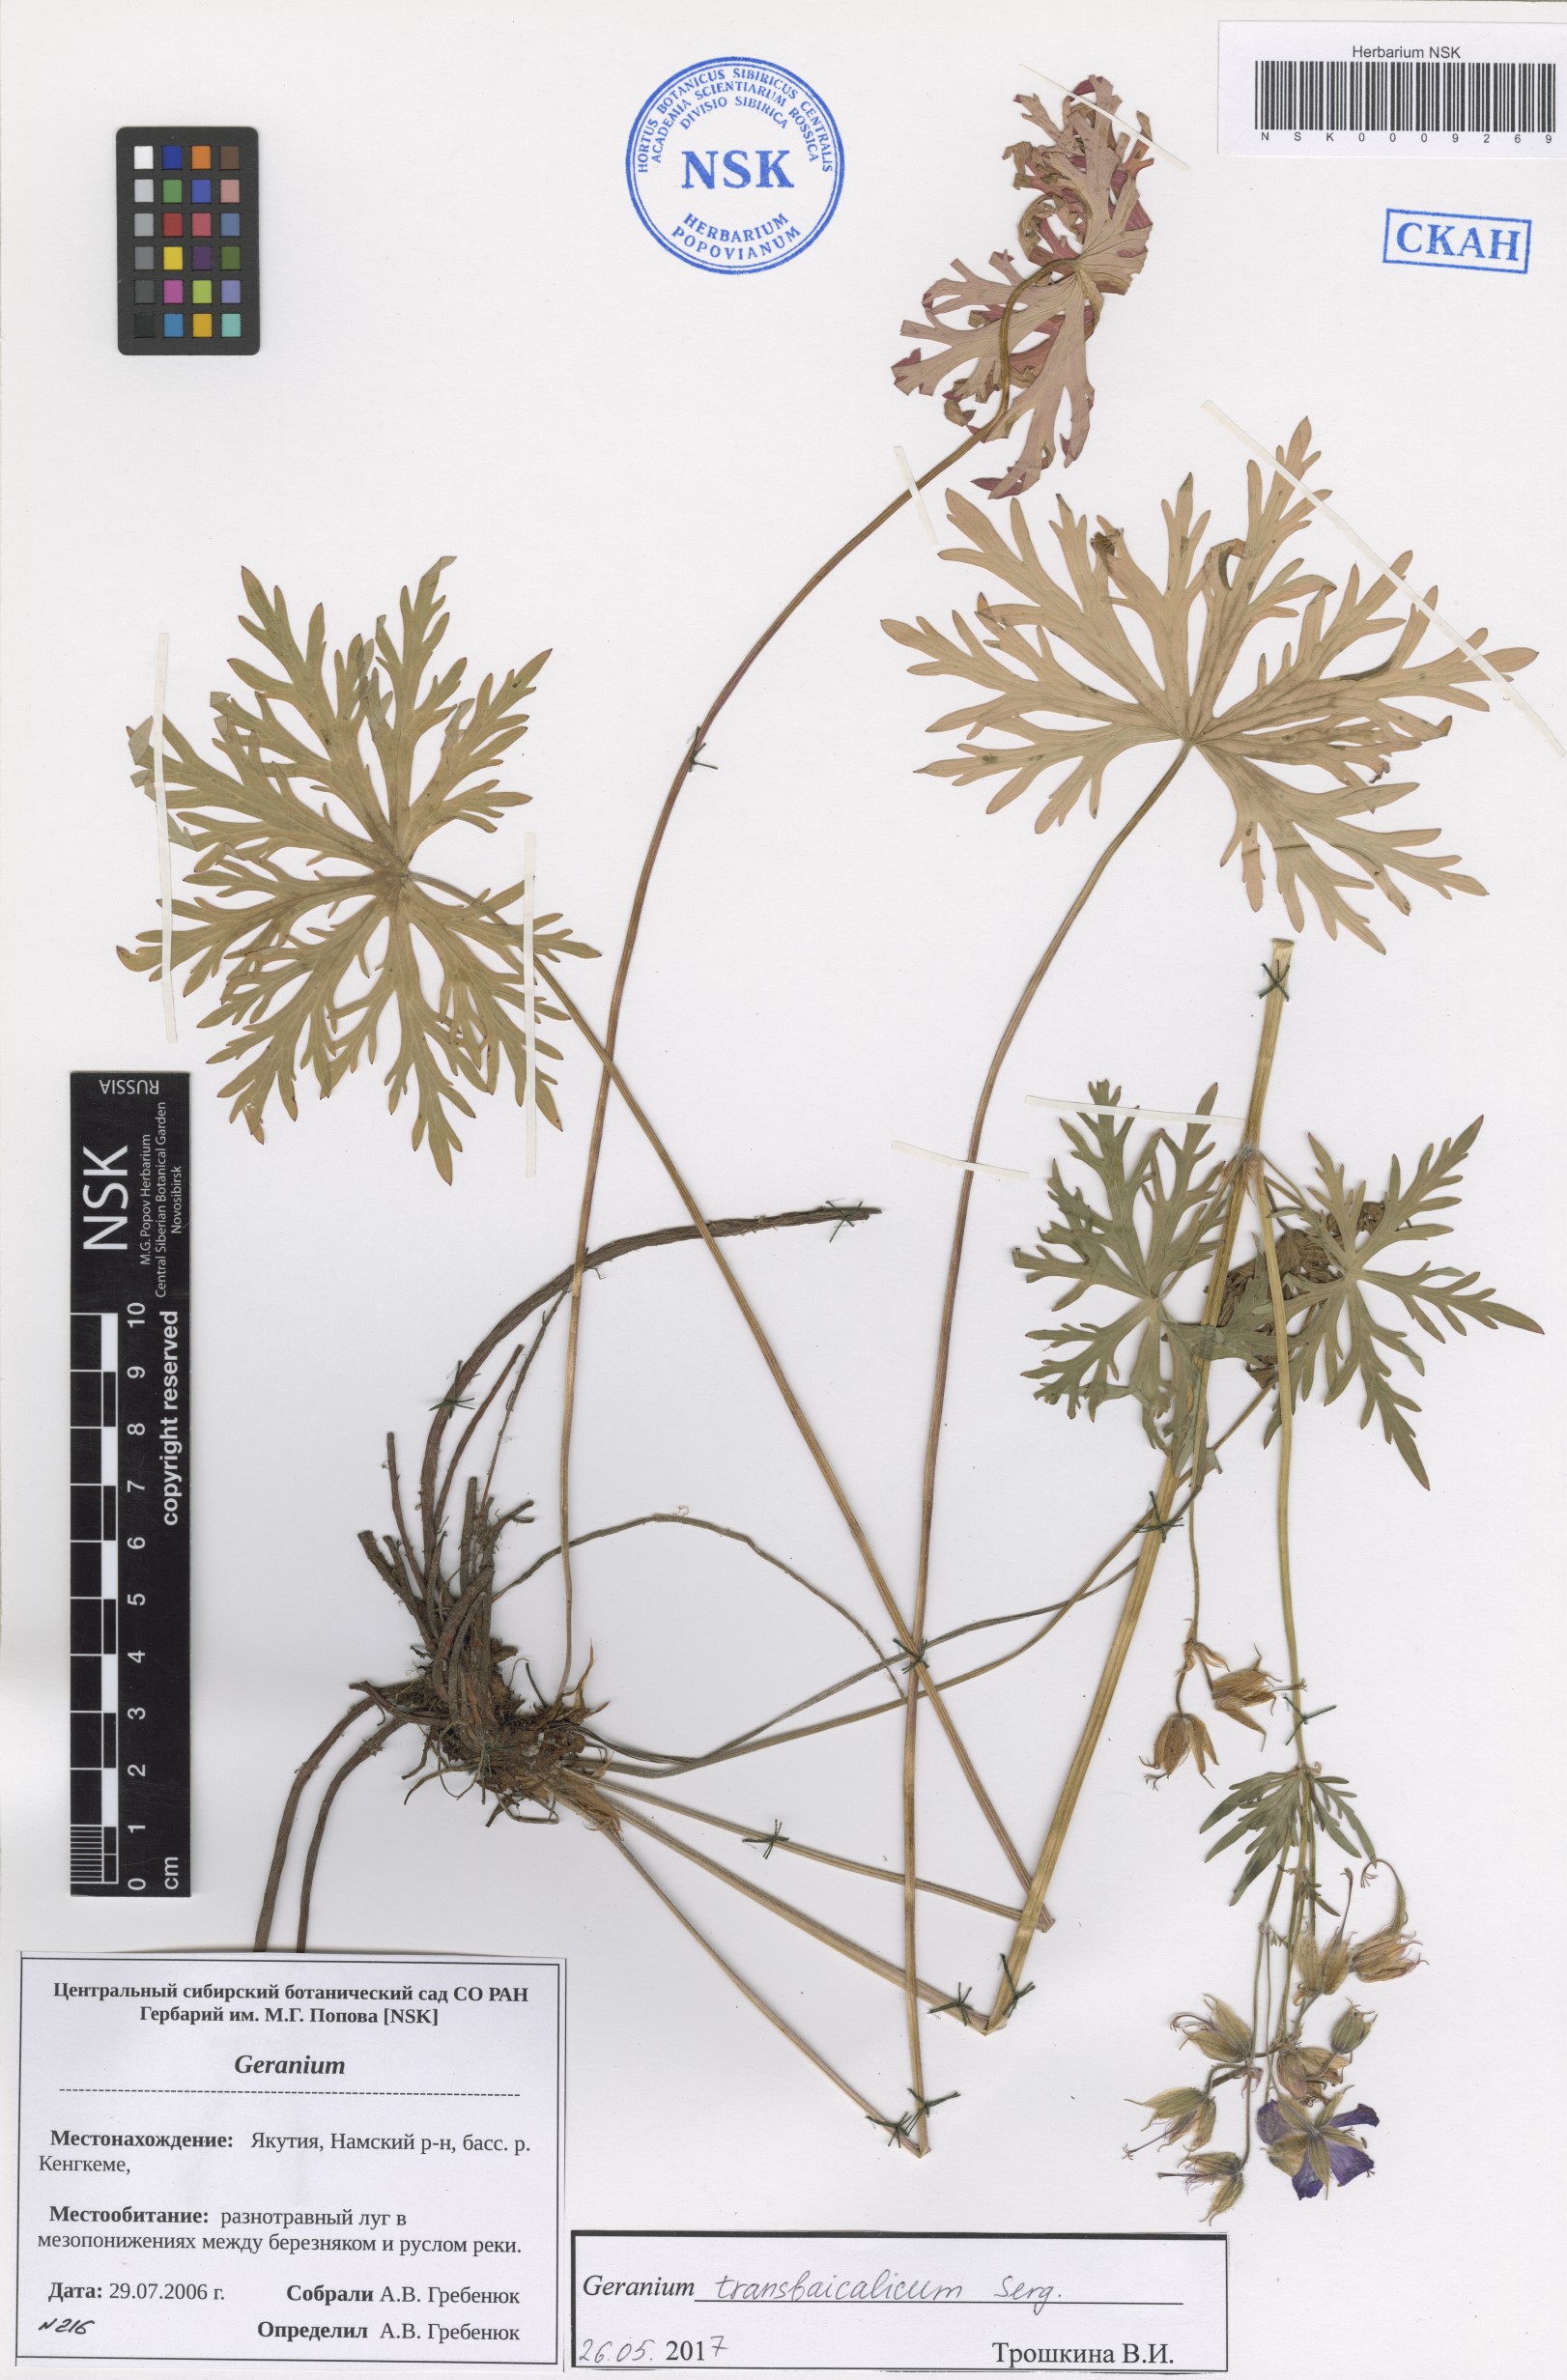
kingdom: Plantae
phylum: Tracheophyta
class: Magnoliopsida
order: Geraniales
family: Geraniaceae
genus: Geranium
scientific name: Geranium pratense
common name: Meadow crane's-bill
